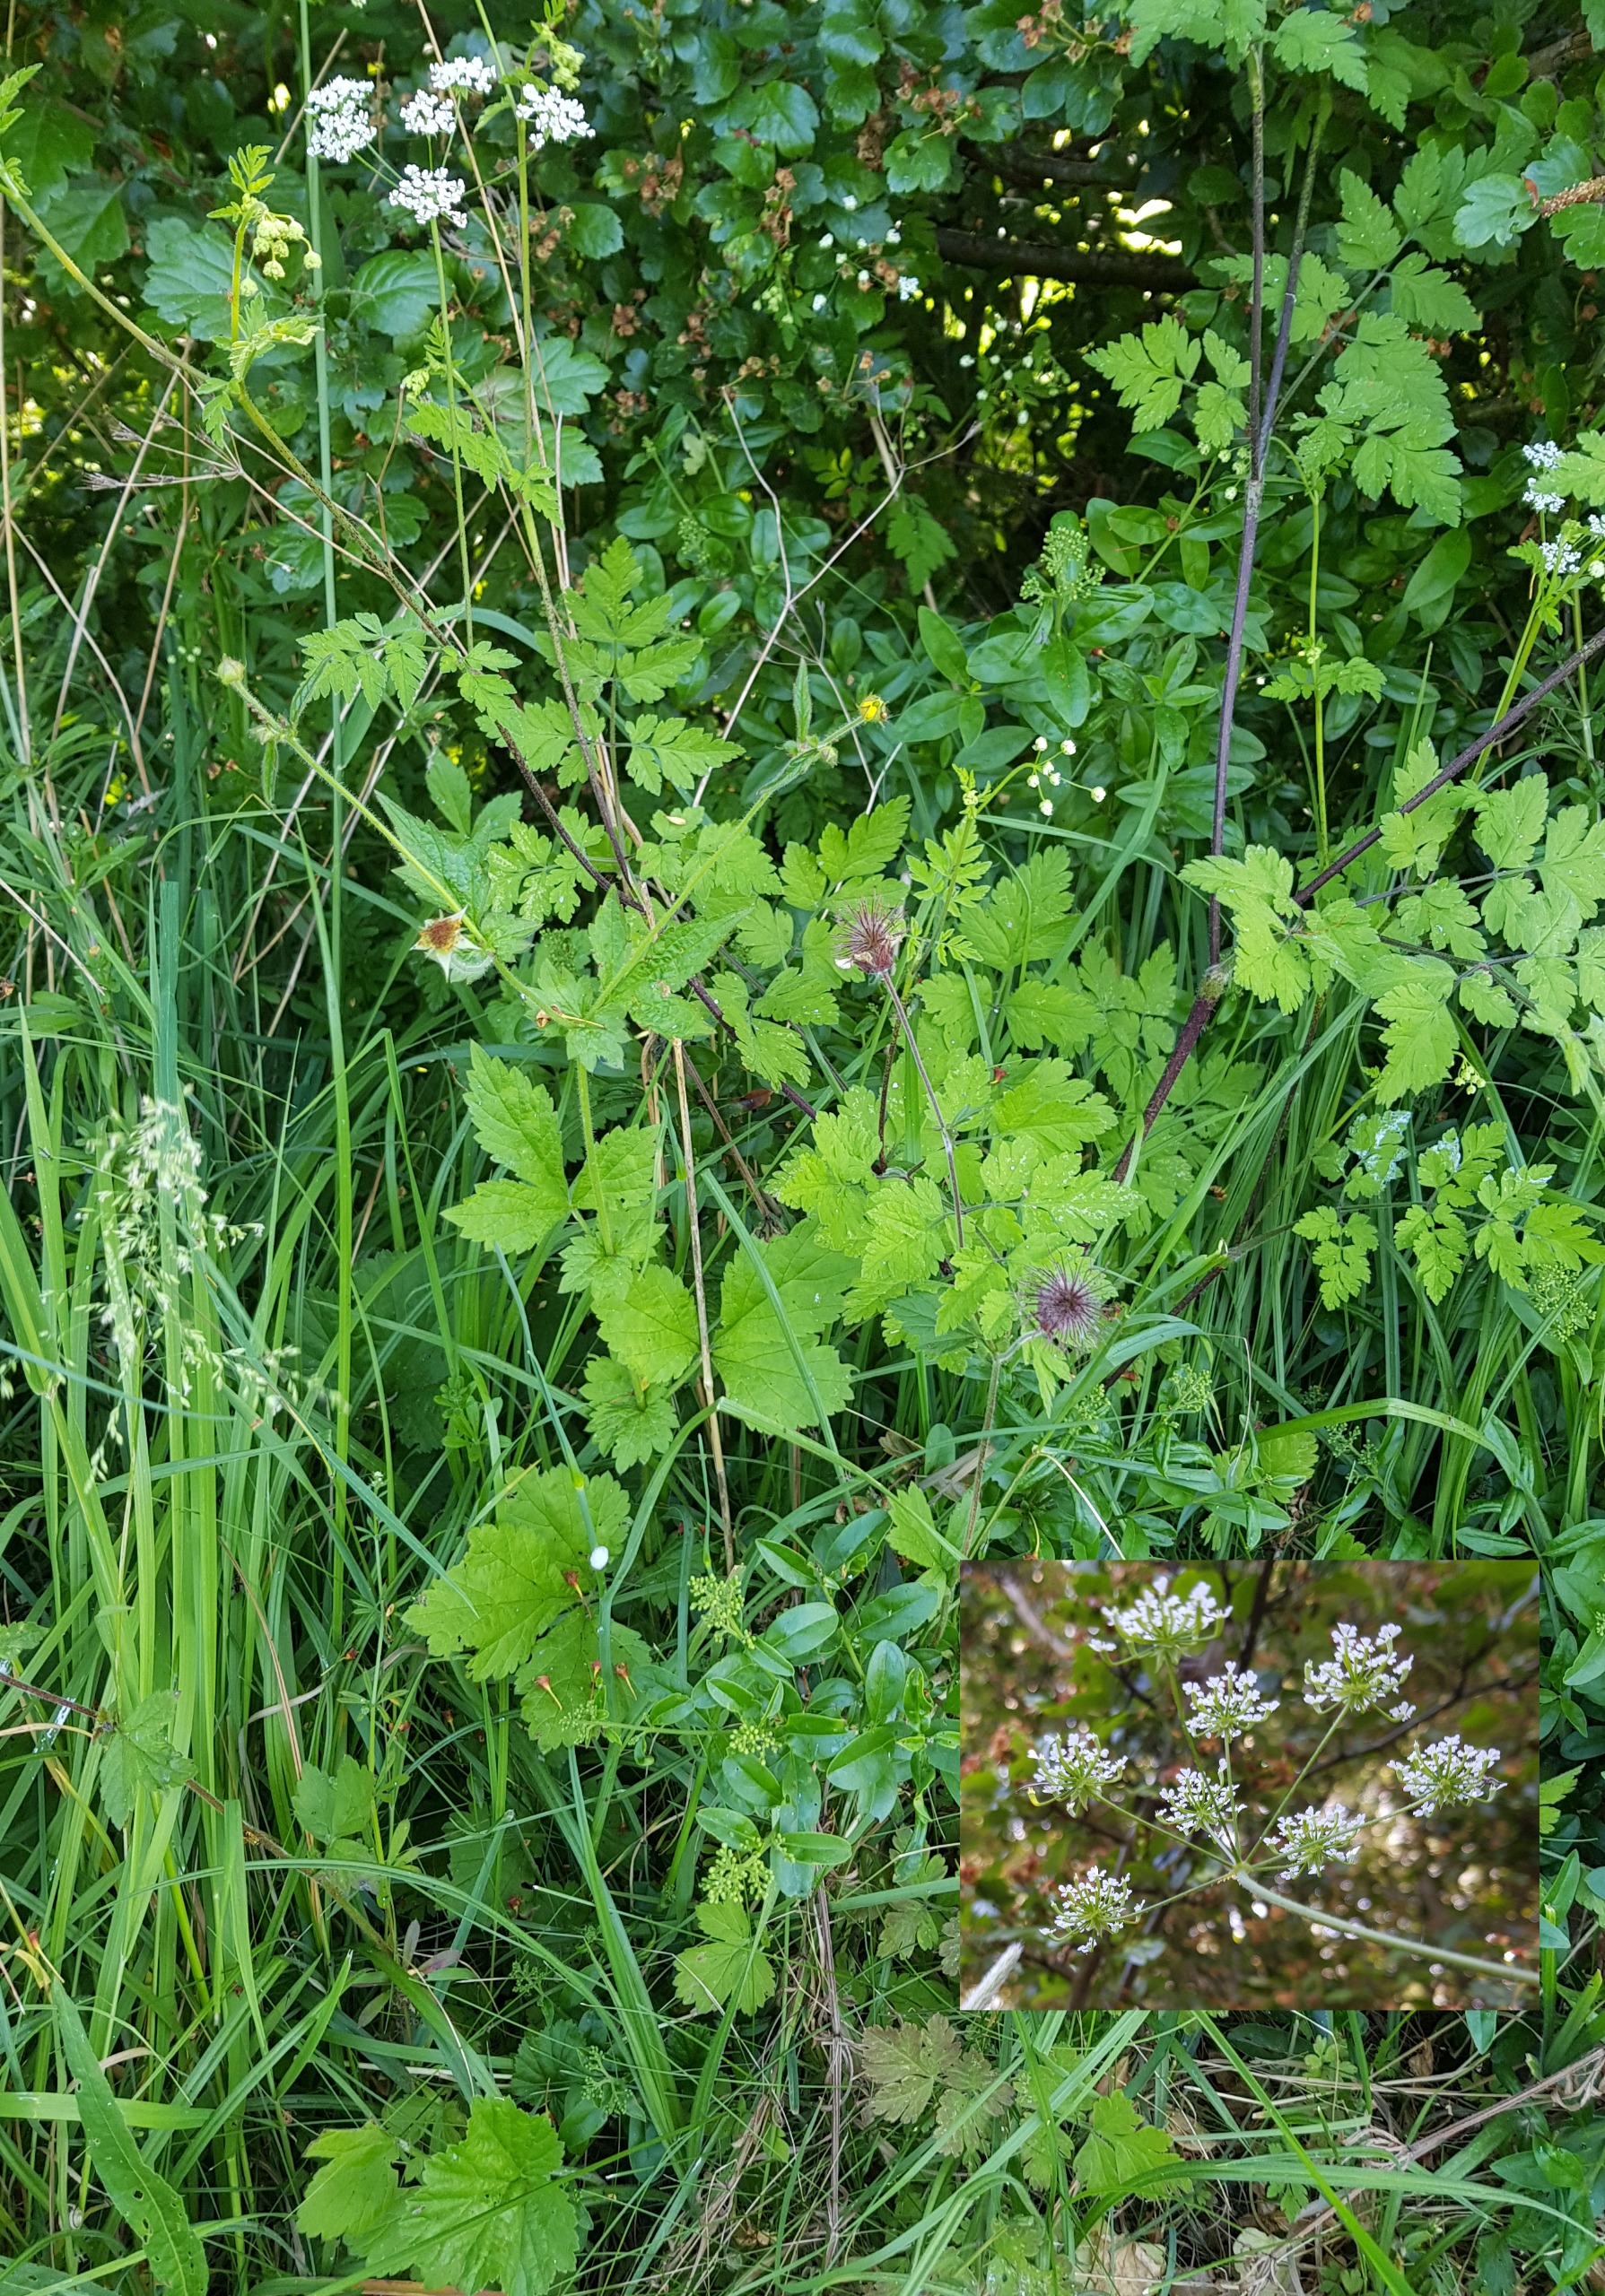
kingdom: Plantae
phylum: Tracheophyta
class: Magnoliopsida
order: Apiales
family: Apiaceae
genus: Chaerophyllum
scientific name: Chaerophyllum temulum
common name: Almindelig hulsvøb
